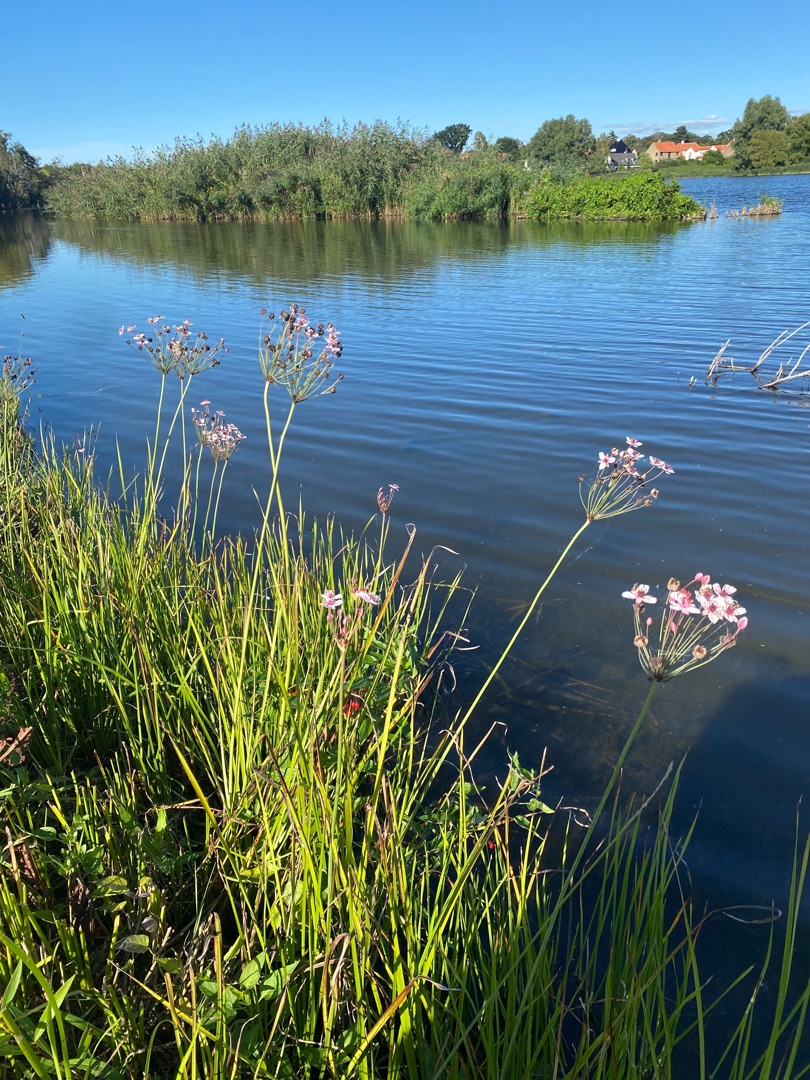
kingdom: Plantae
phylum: Tracheophyta
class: Liliopsida
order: Alismatales
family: Butomaceae
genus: Butomus
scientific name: Butomus umbellatus
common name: Brudelys
